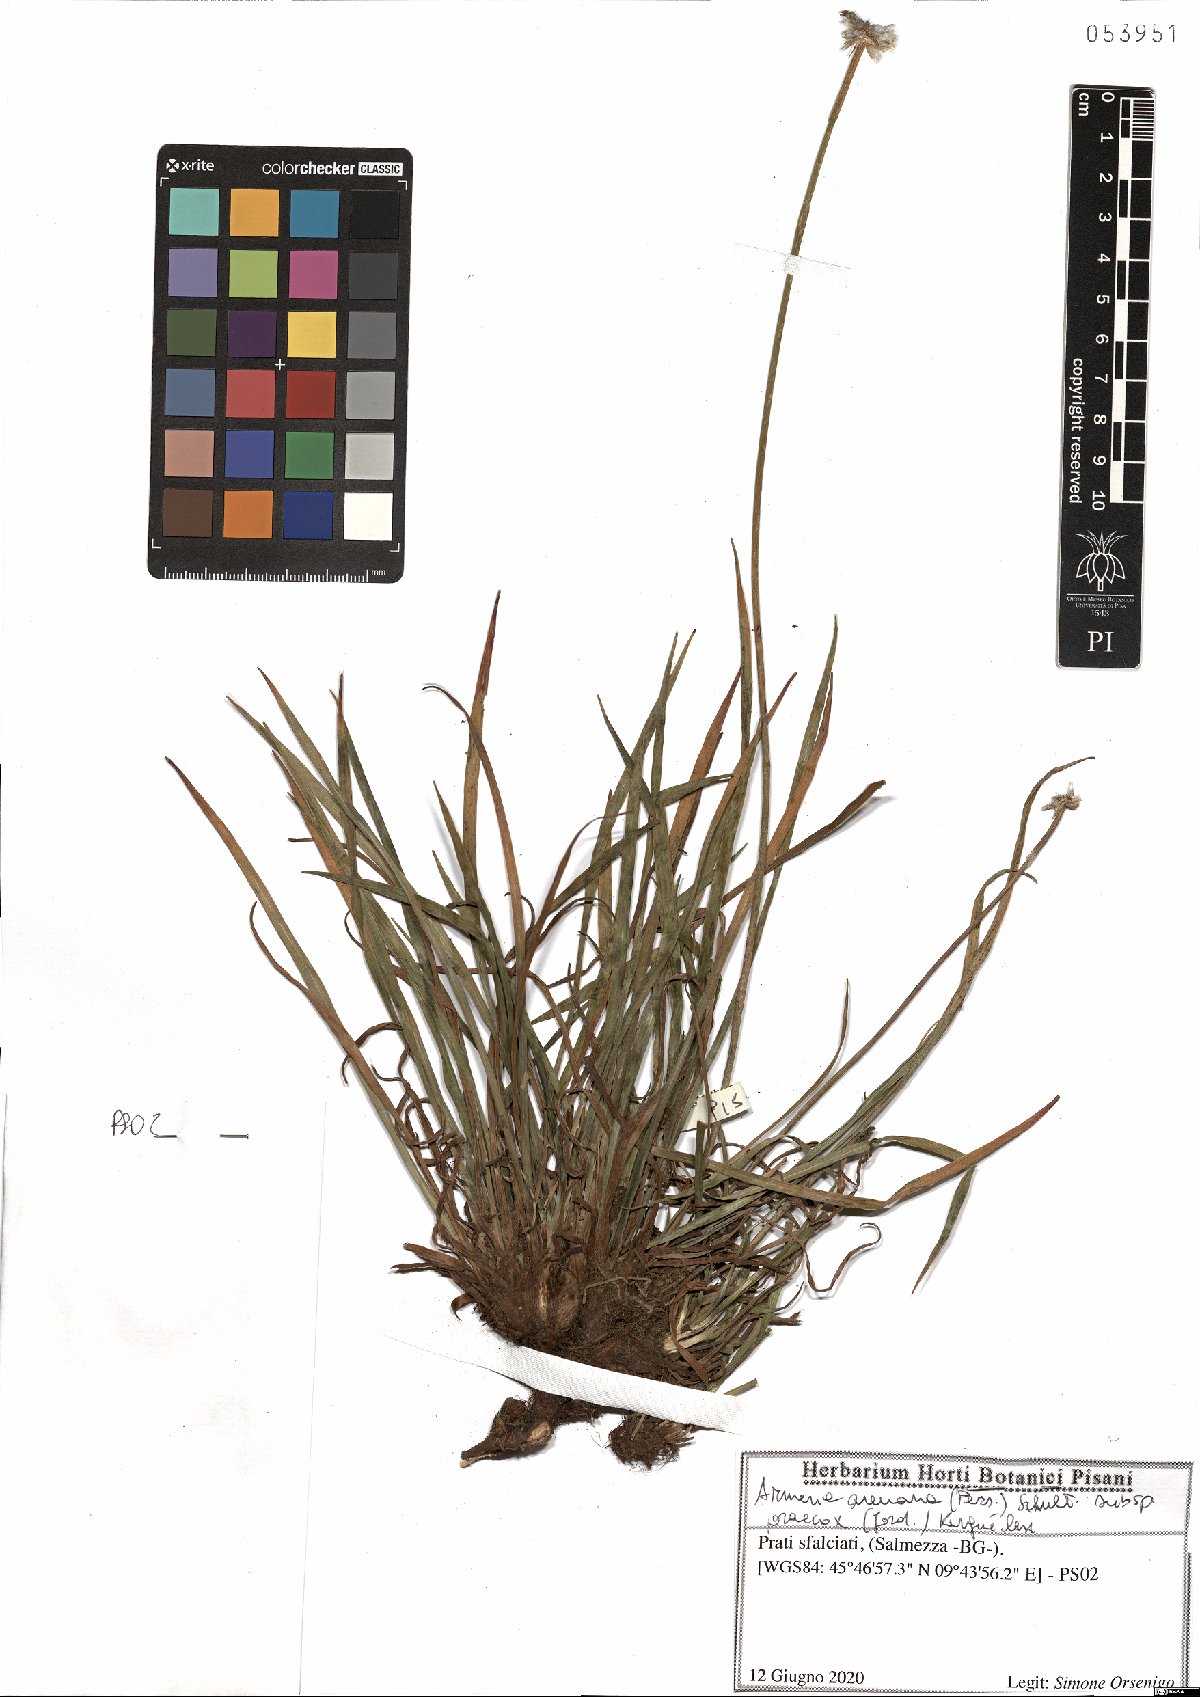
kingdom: Plantae
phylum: Tracheophyta
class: Magnoliopsida
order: Caryophyllales
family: Plumbaginaceae
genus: Armeria
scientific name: Armeria arenaria
